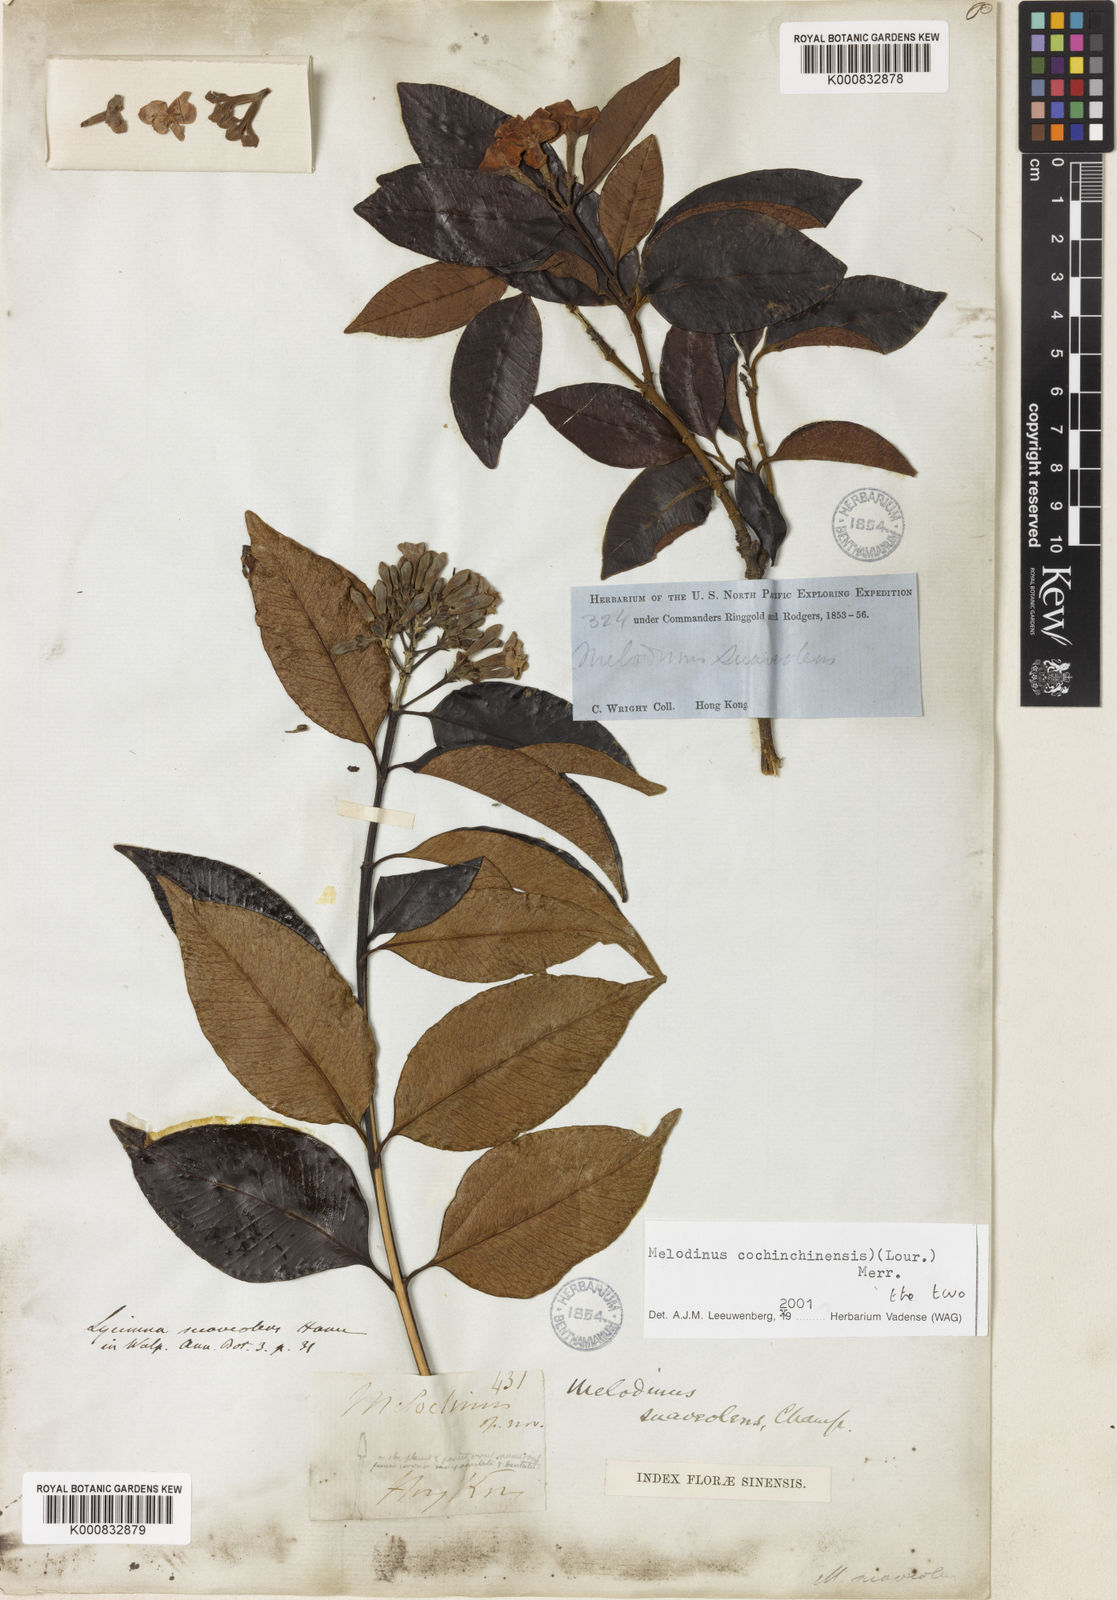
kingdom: Plantae
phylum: Tracheophyta
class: Magnoliopsida
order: Gentianales
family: Apocynaceae
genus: Melodinus
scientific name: Melodinus cochinchinensis
